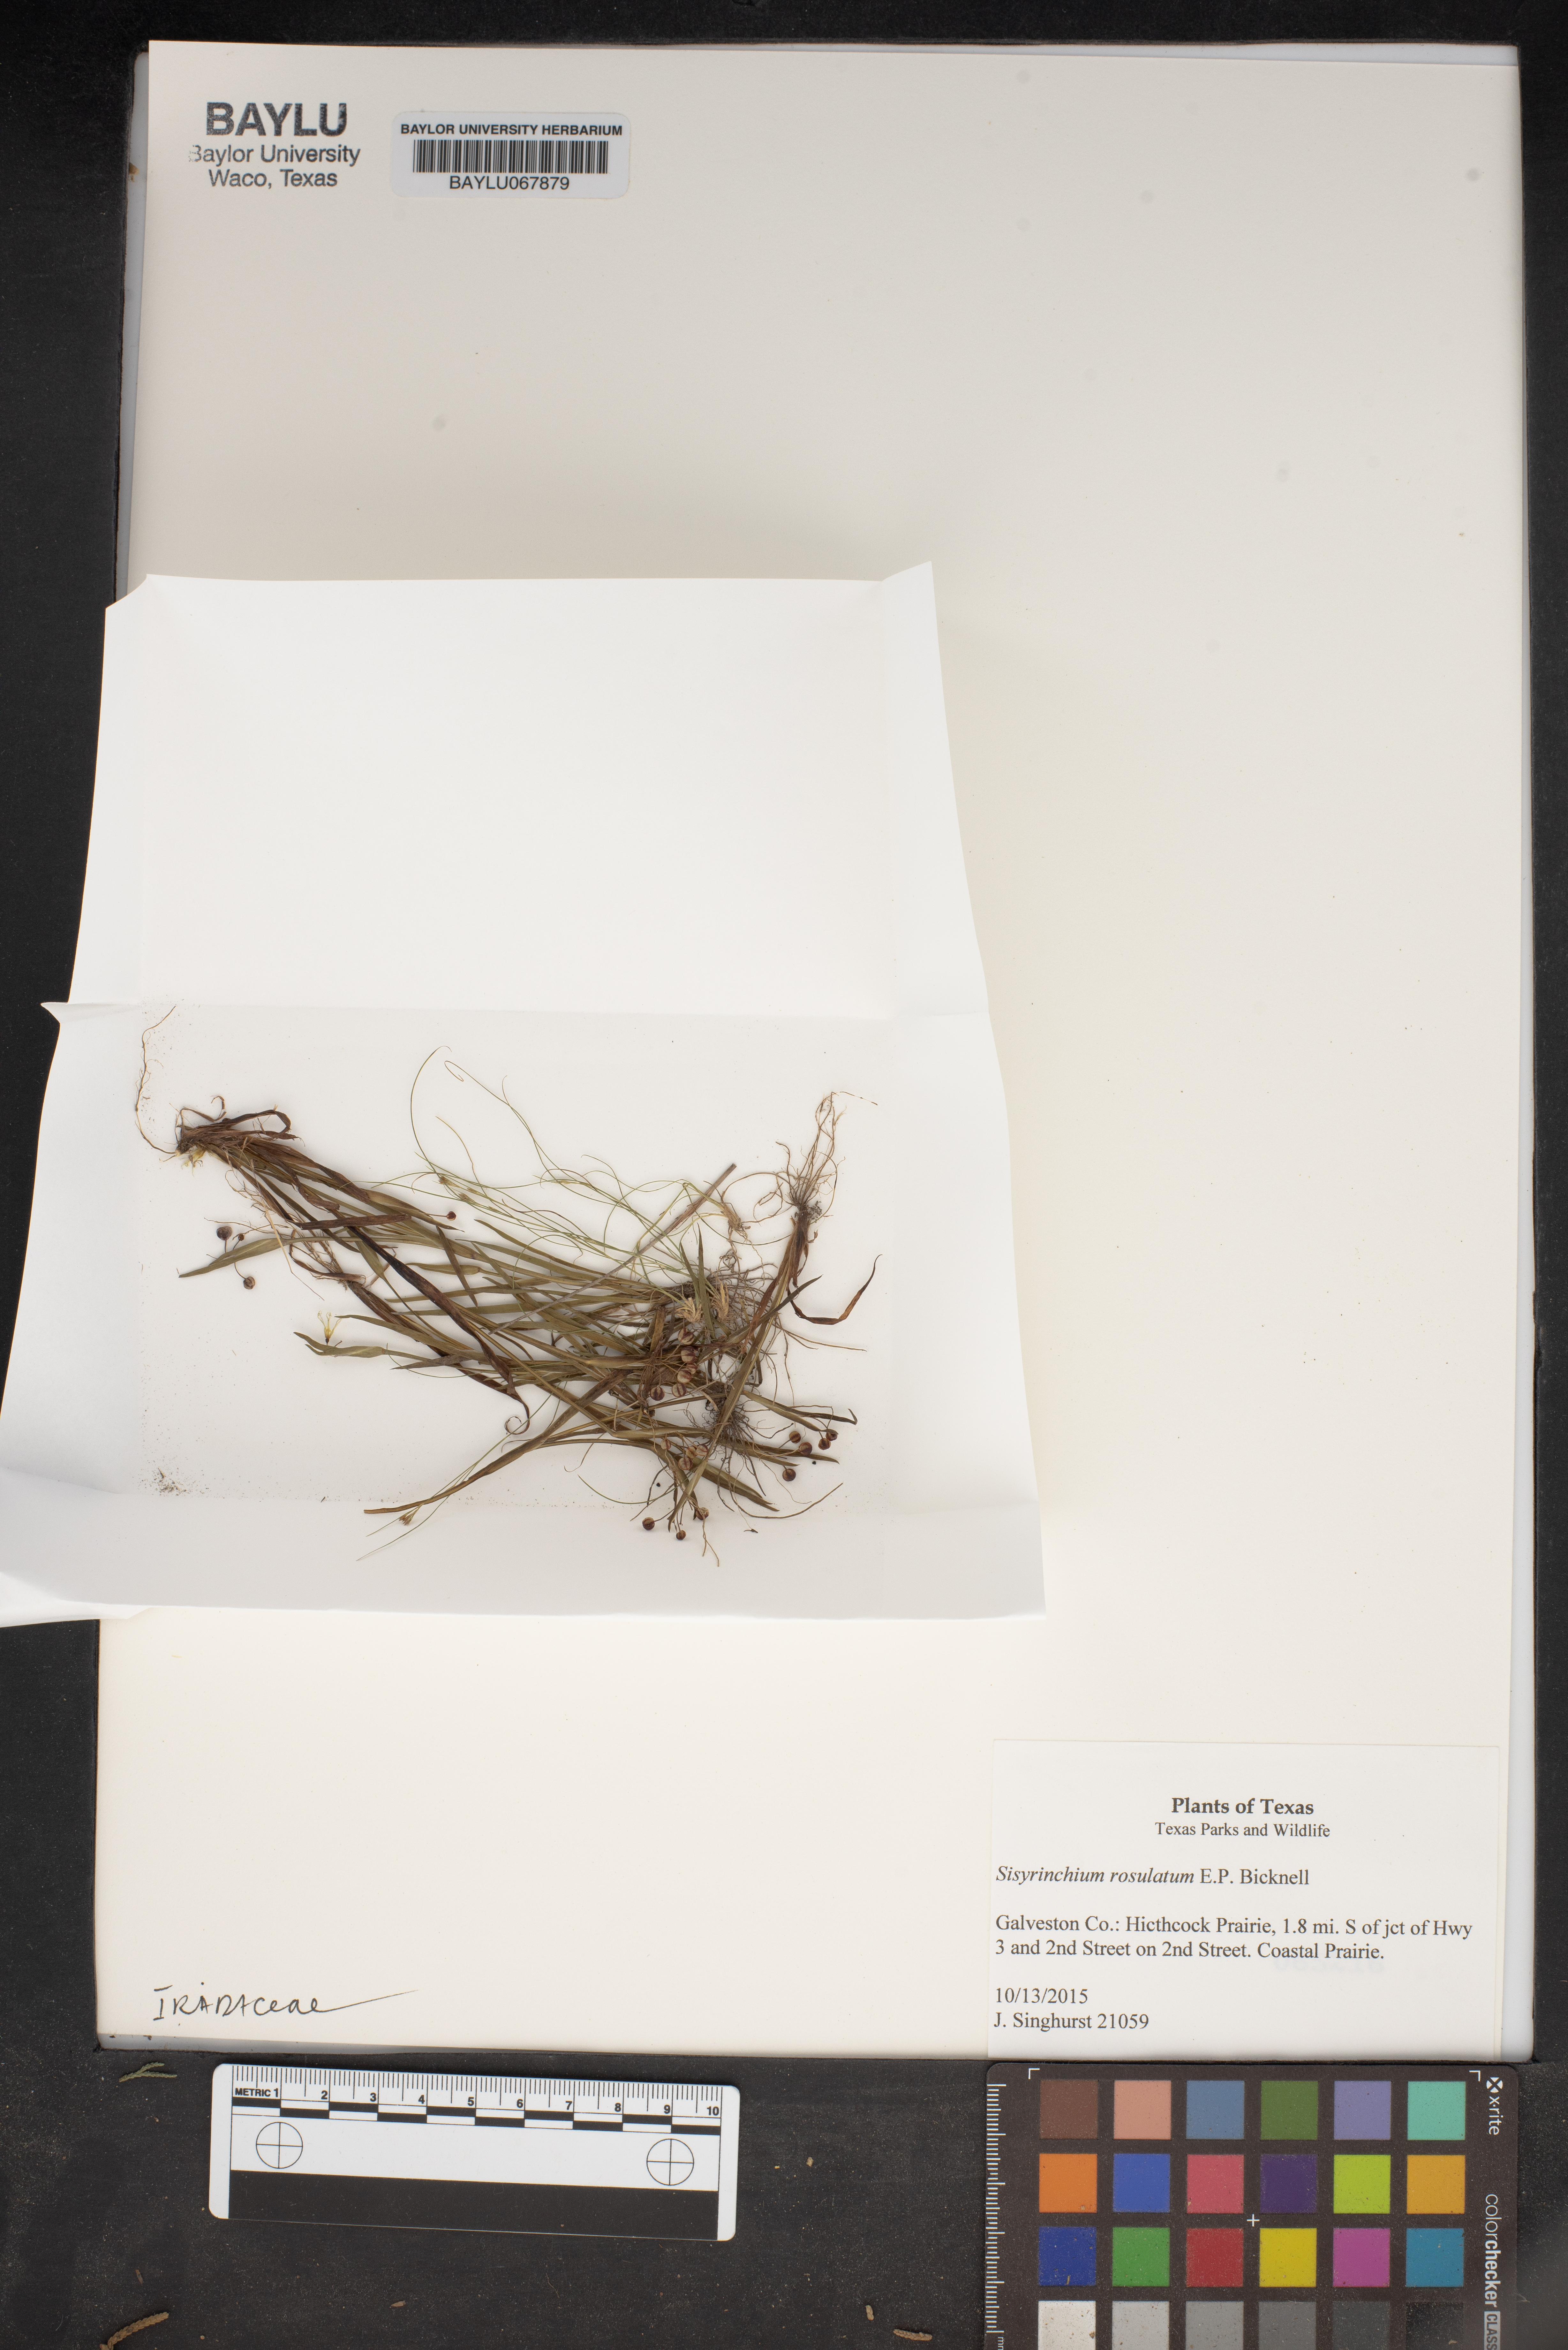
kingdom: Plantae
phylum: Tracheophyta
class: Liliopsida
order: Asparagales
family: Iridaceae
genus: Sisyrinchium
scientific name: Sisyrinchium rosulatum
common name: Annual blue-eyed grass
